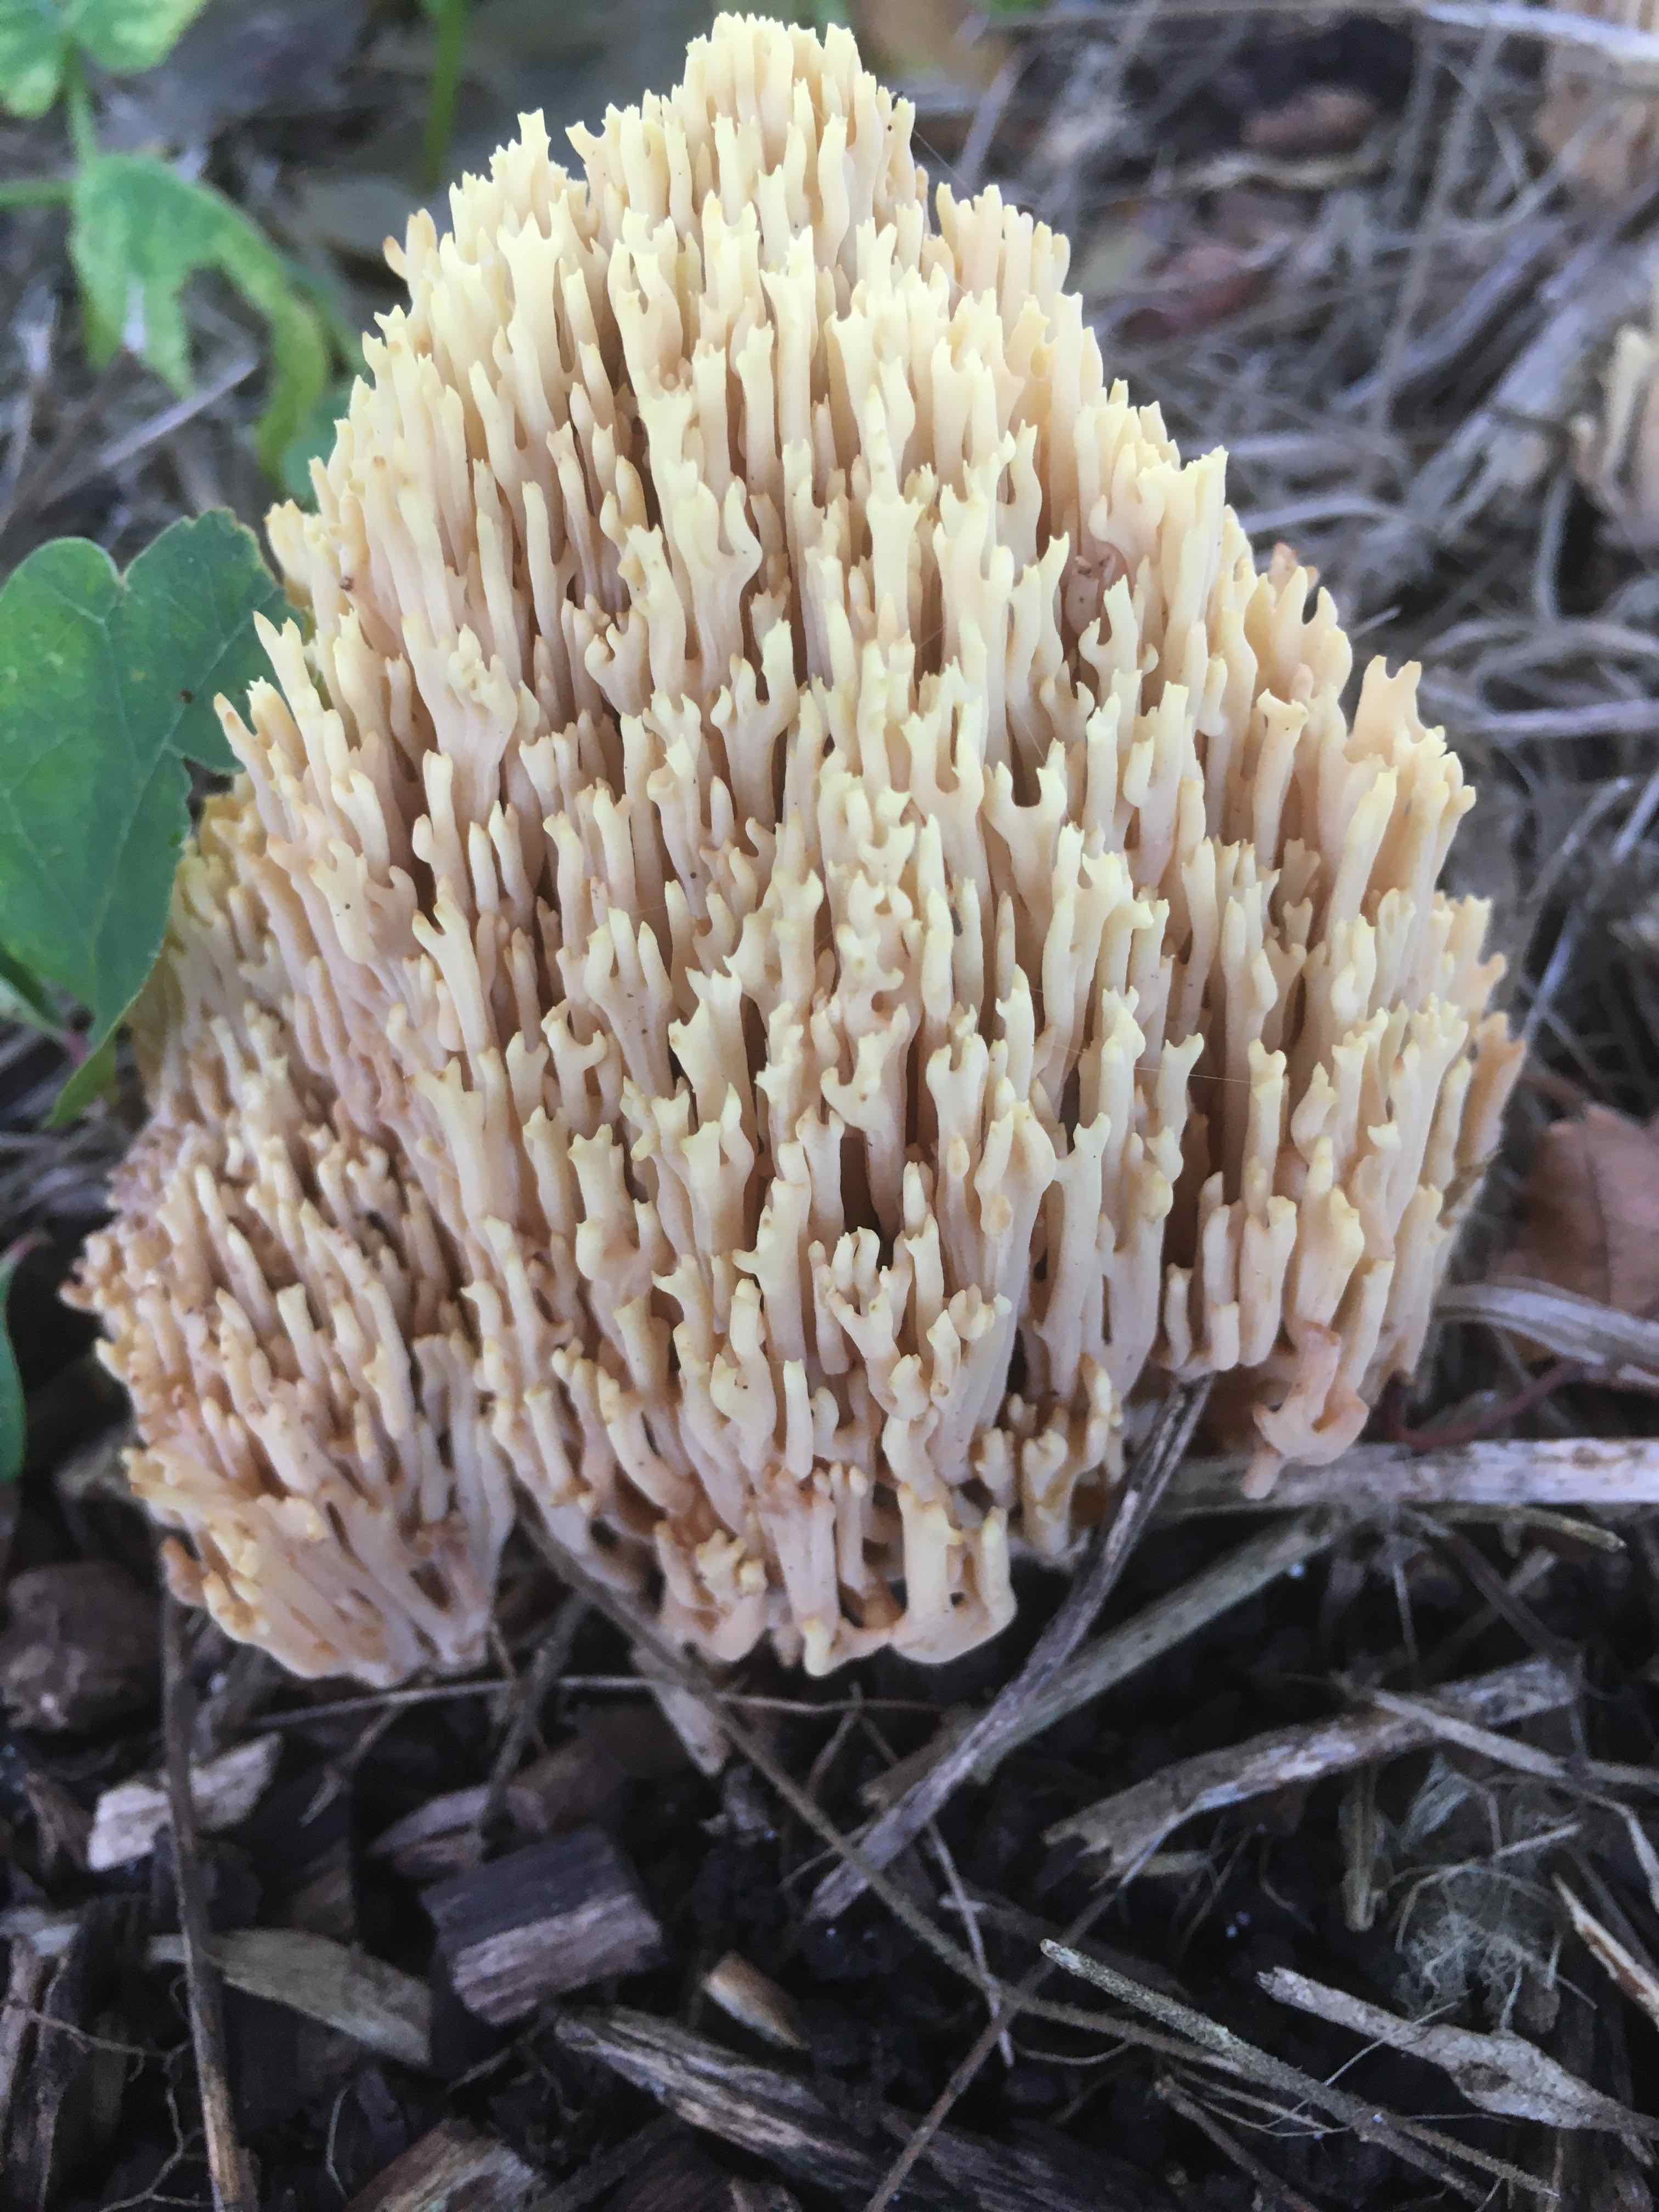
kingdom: Fungi
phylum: Basidiomycota
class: Agaricomycetes
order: Gomphales
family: Gomphaceae
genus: Ramaria
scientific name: Ramaria stricta
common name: rank koralsvamp
